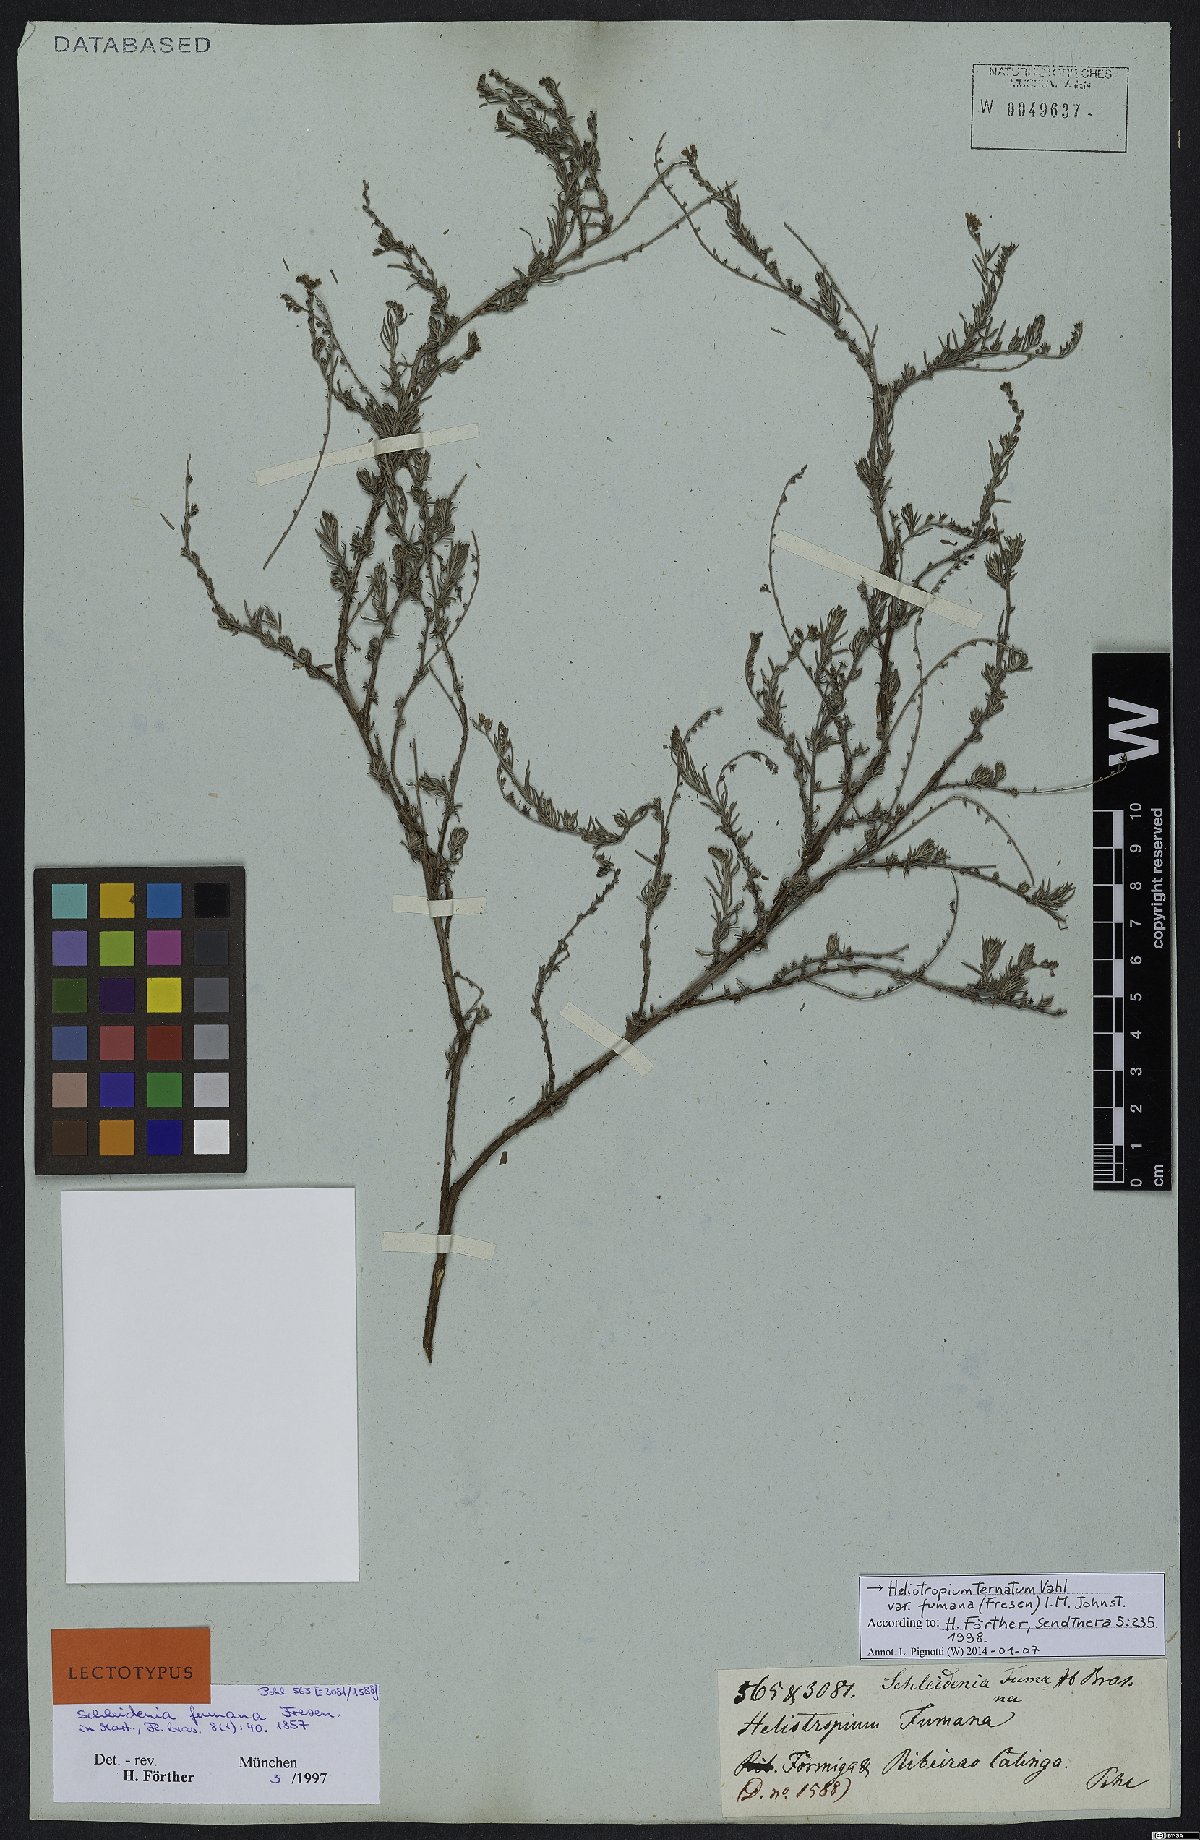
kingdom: Plantae
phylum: Tracheophyta
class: Magnoliopsida
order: Boraginales
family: Heliotropiaceae
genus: Euploca
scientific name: Euploca humilis
